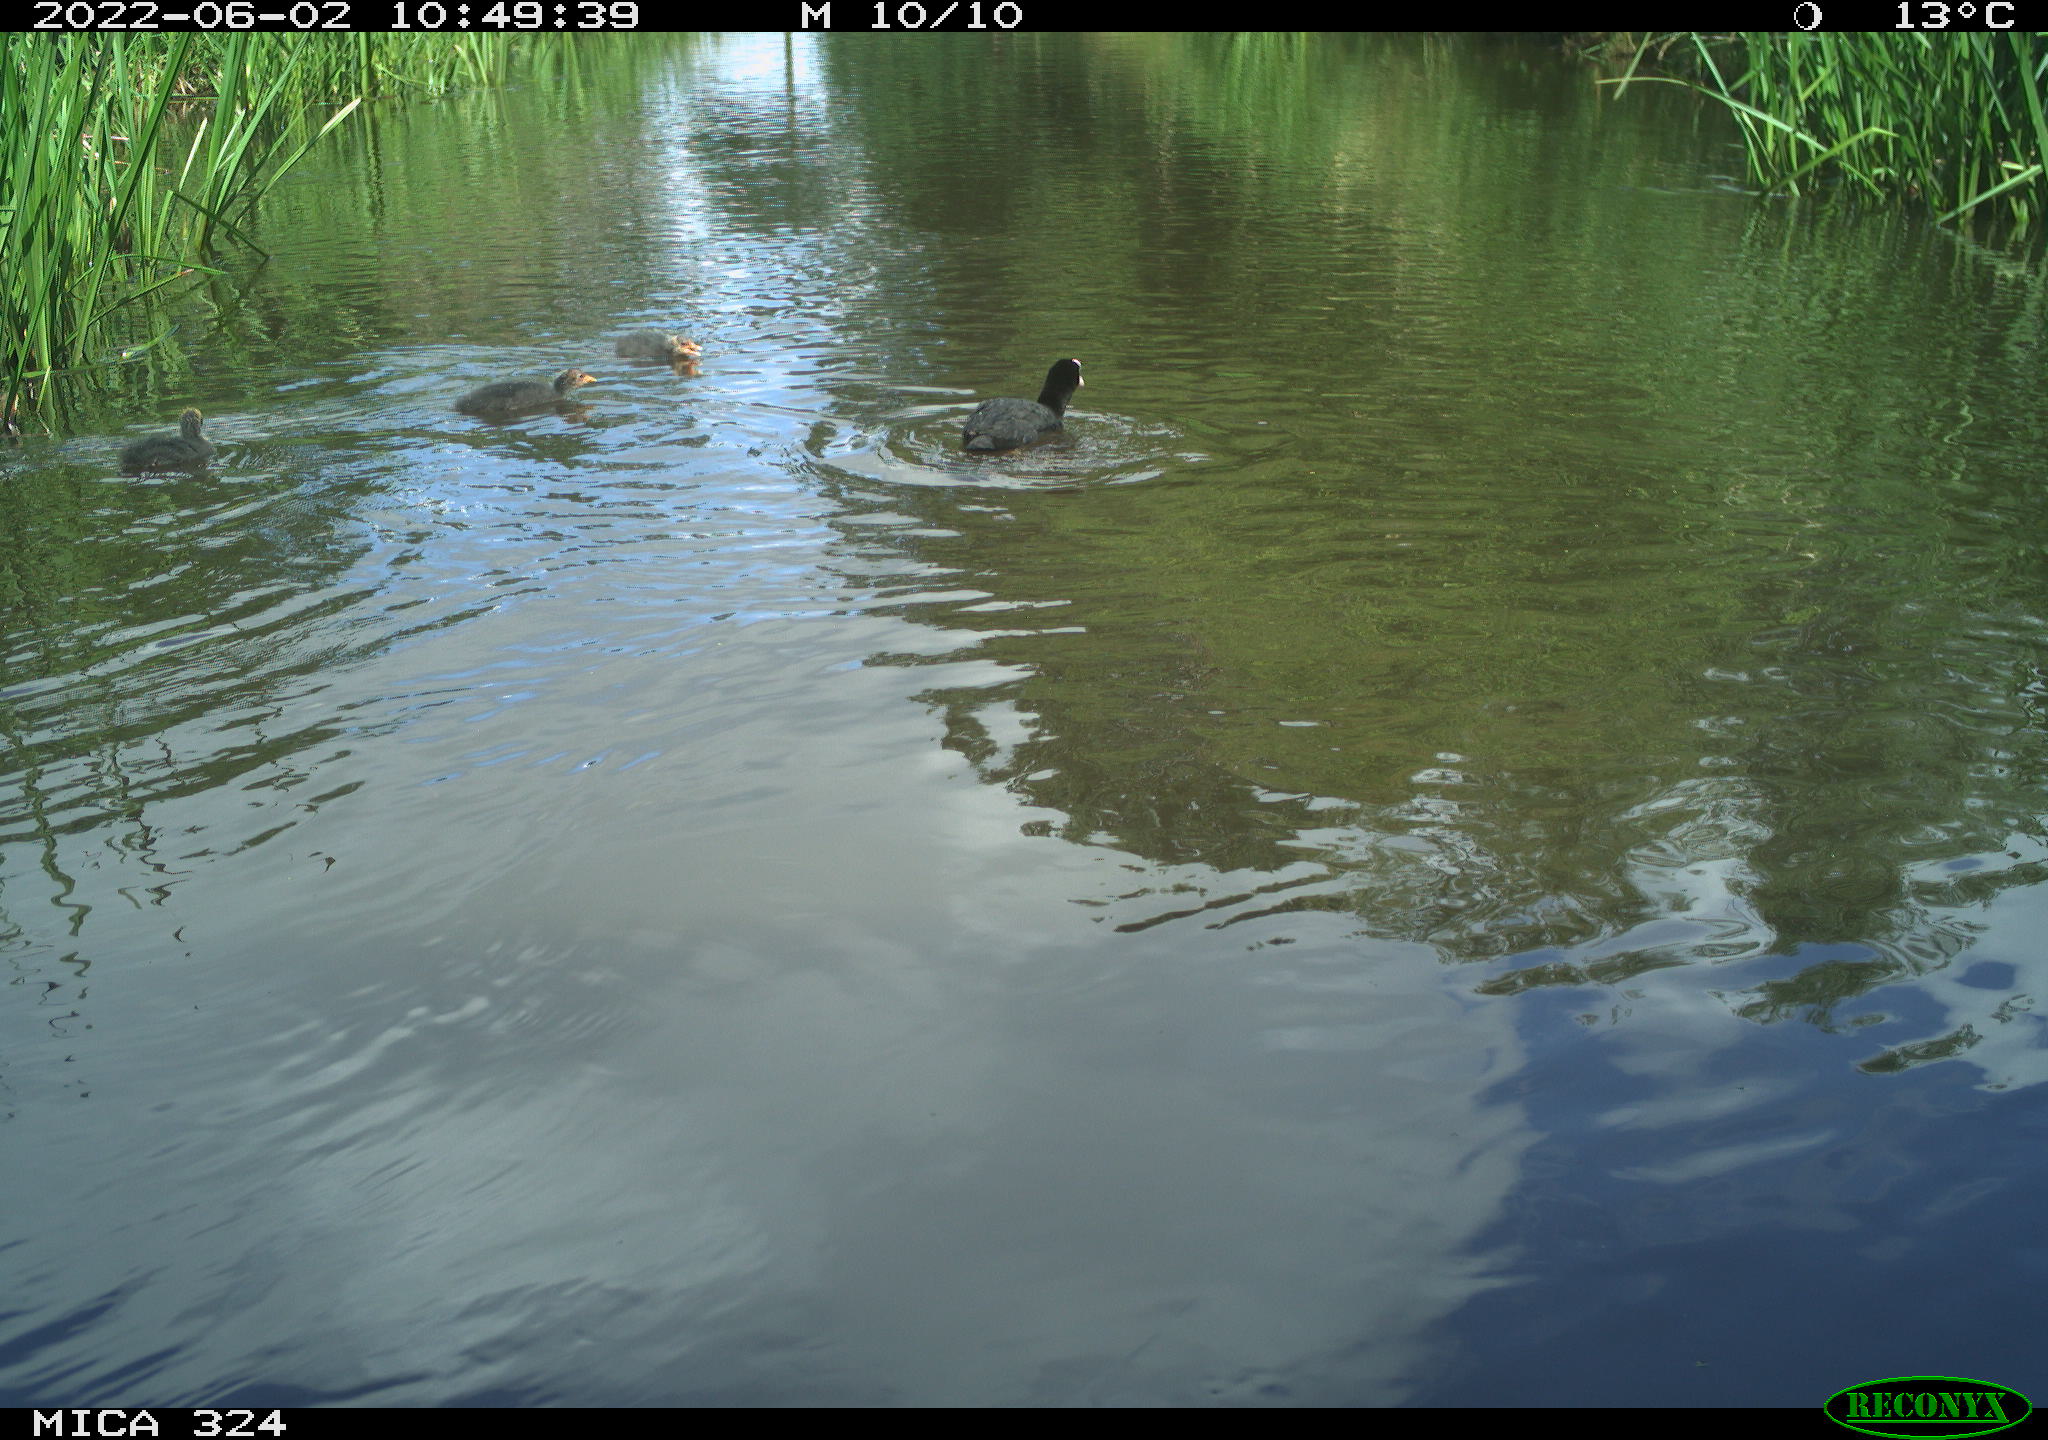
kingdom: Animalia
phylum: Chordata
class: Aves
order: Anseriformes
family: Anatidae
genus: Anas
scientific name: Anas
